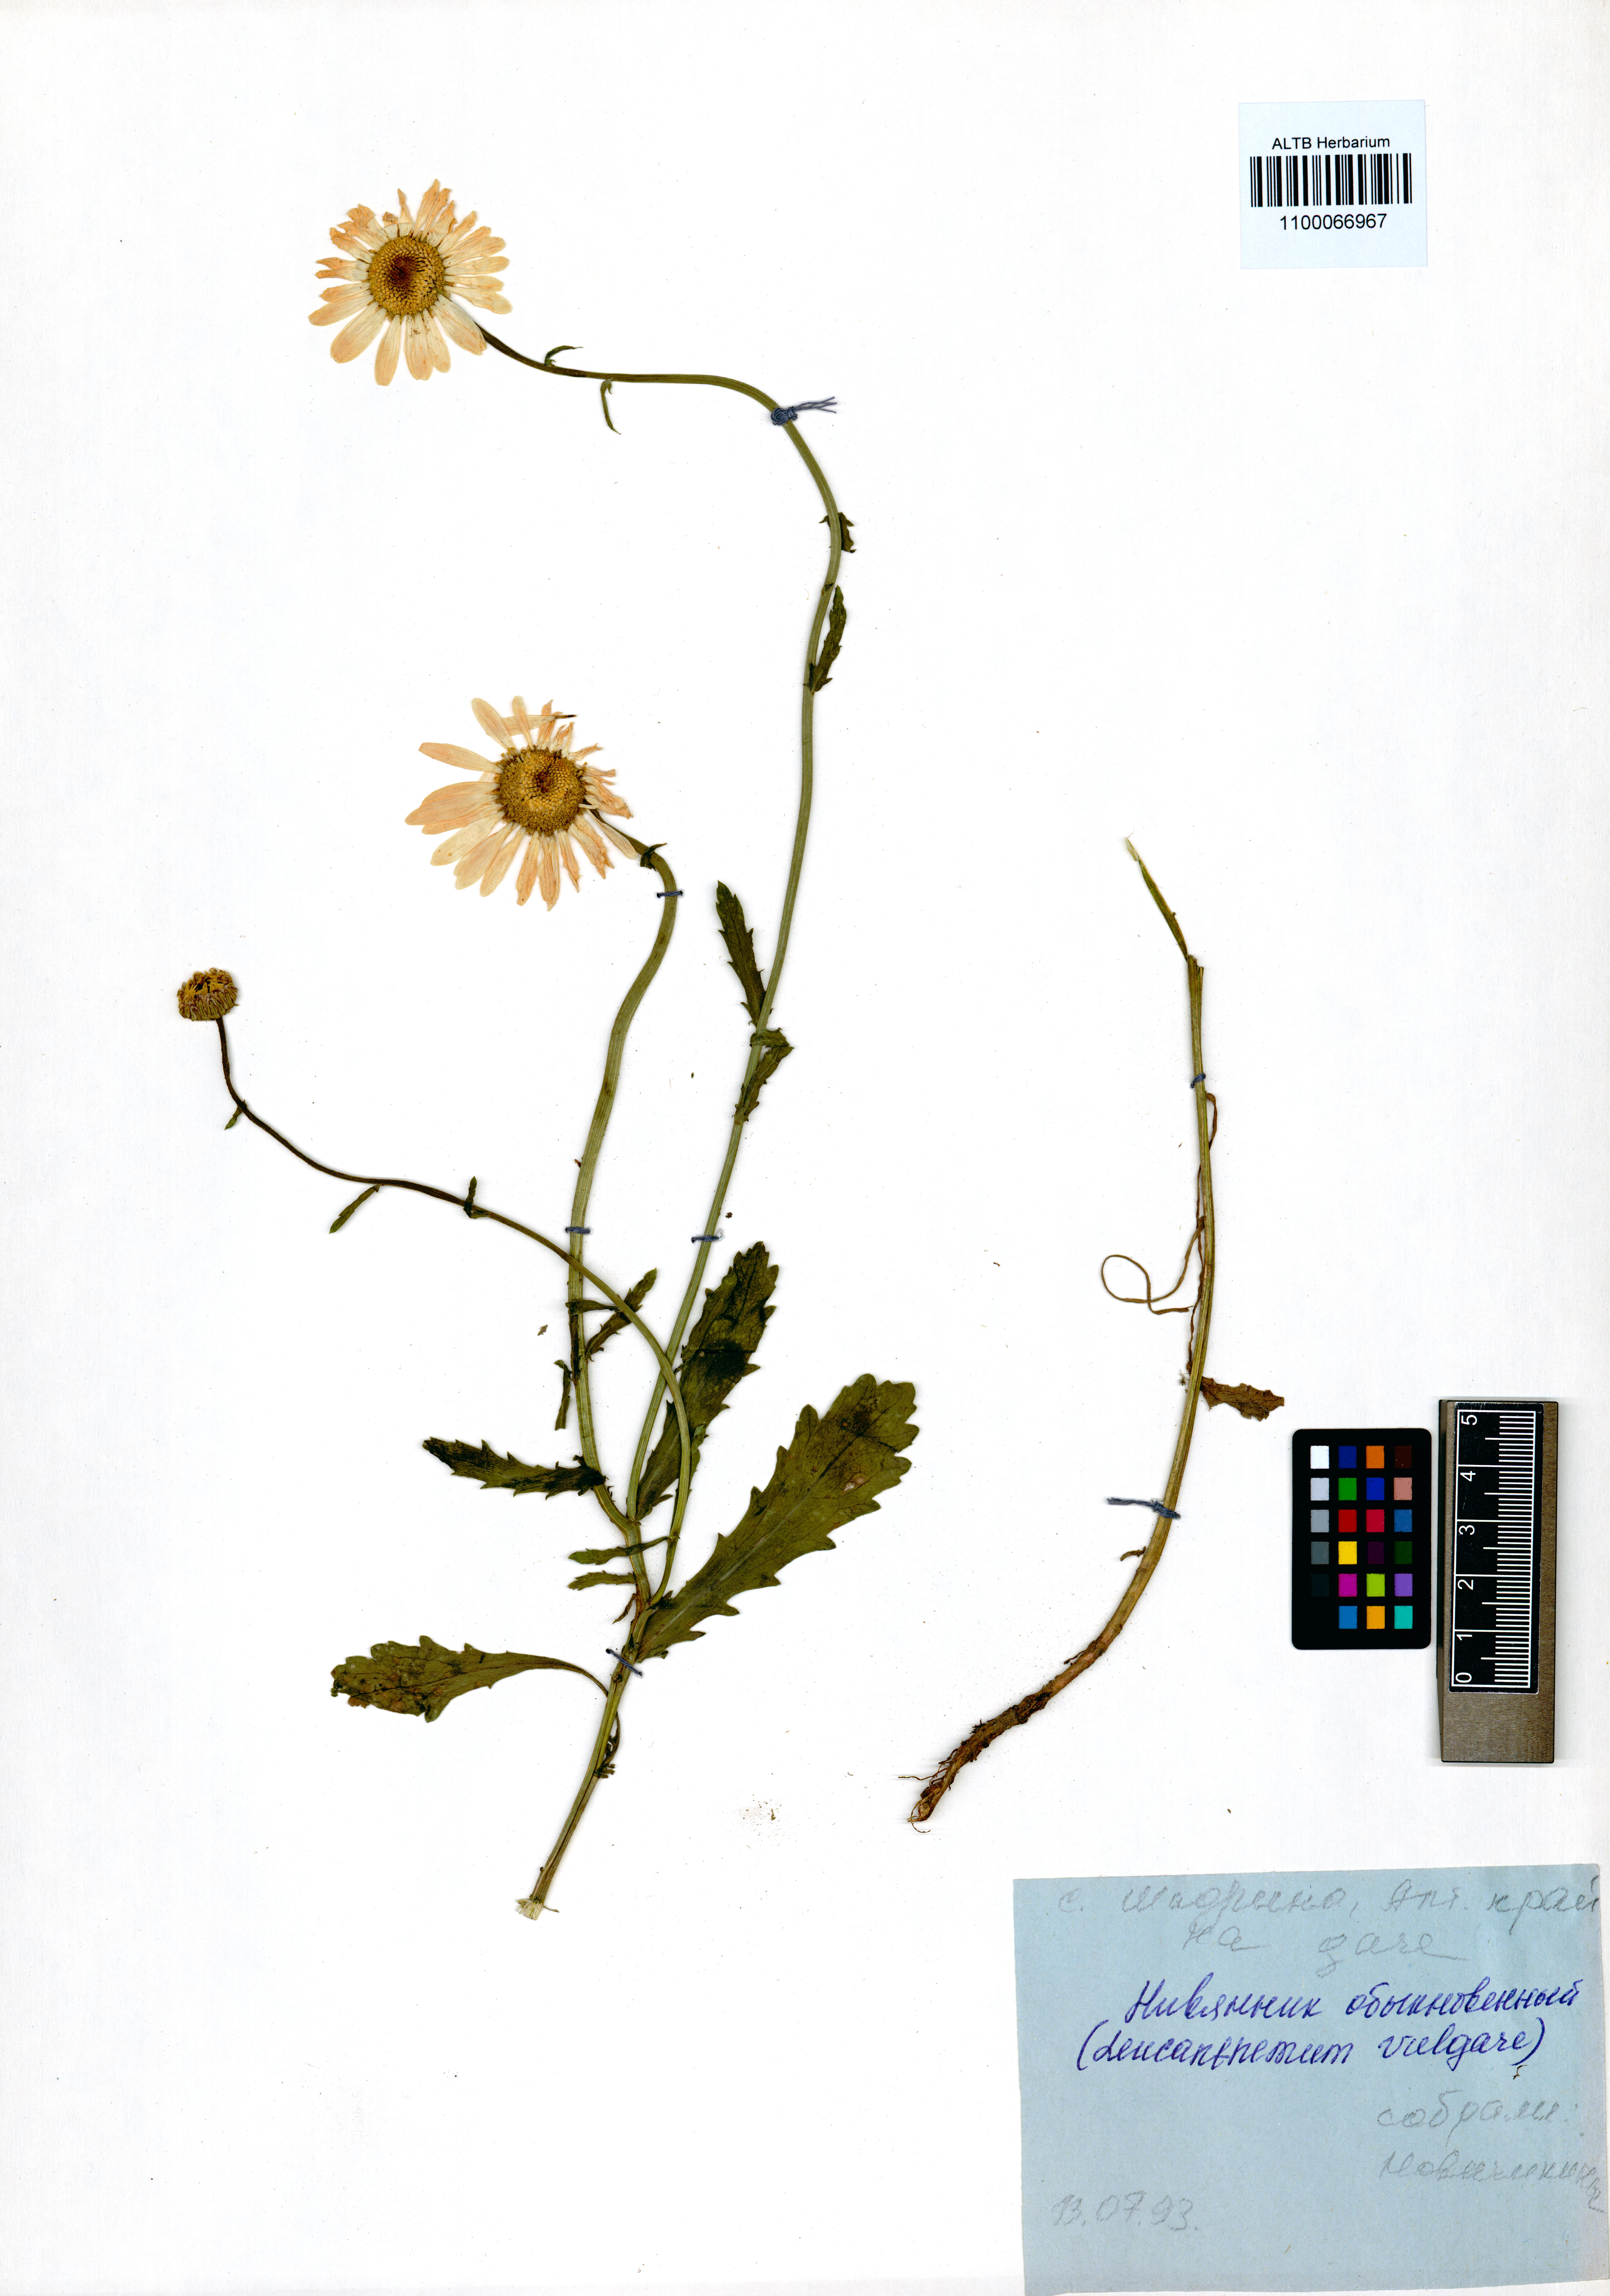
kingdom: Plantae
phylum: Tracheophyta
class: Magnoliopsida
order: Asterales
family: Asteraceae
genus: Leucanthemum
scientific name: Leucanthemum vulgare
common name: Oxeye daisy
